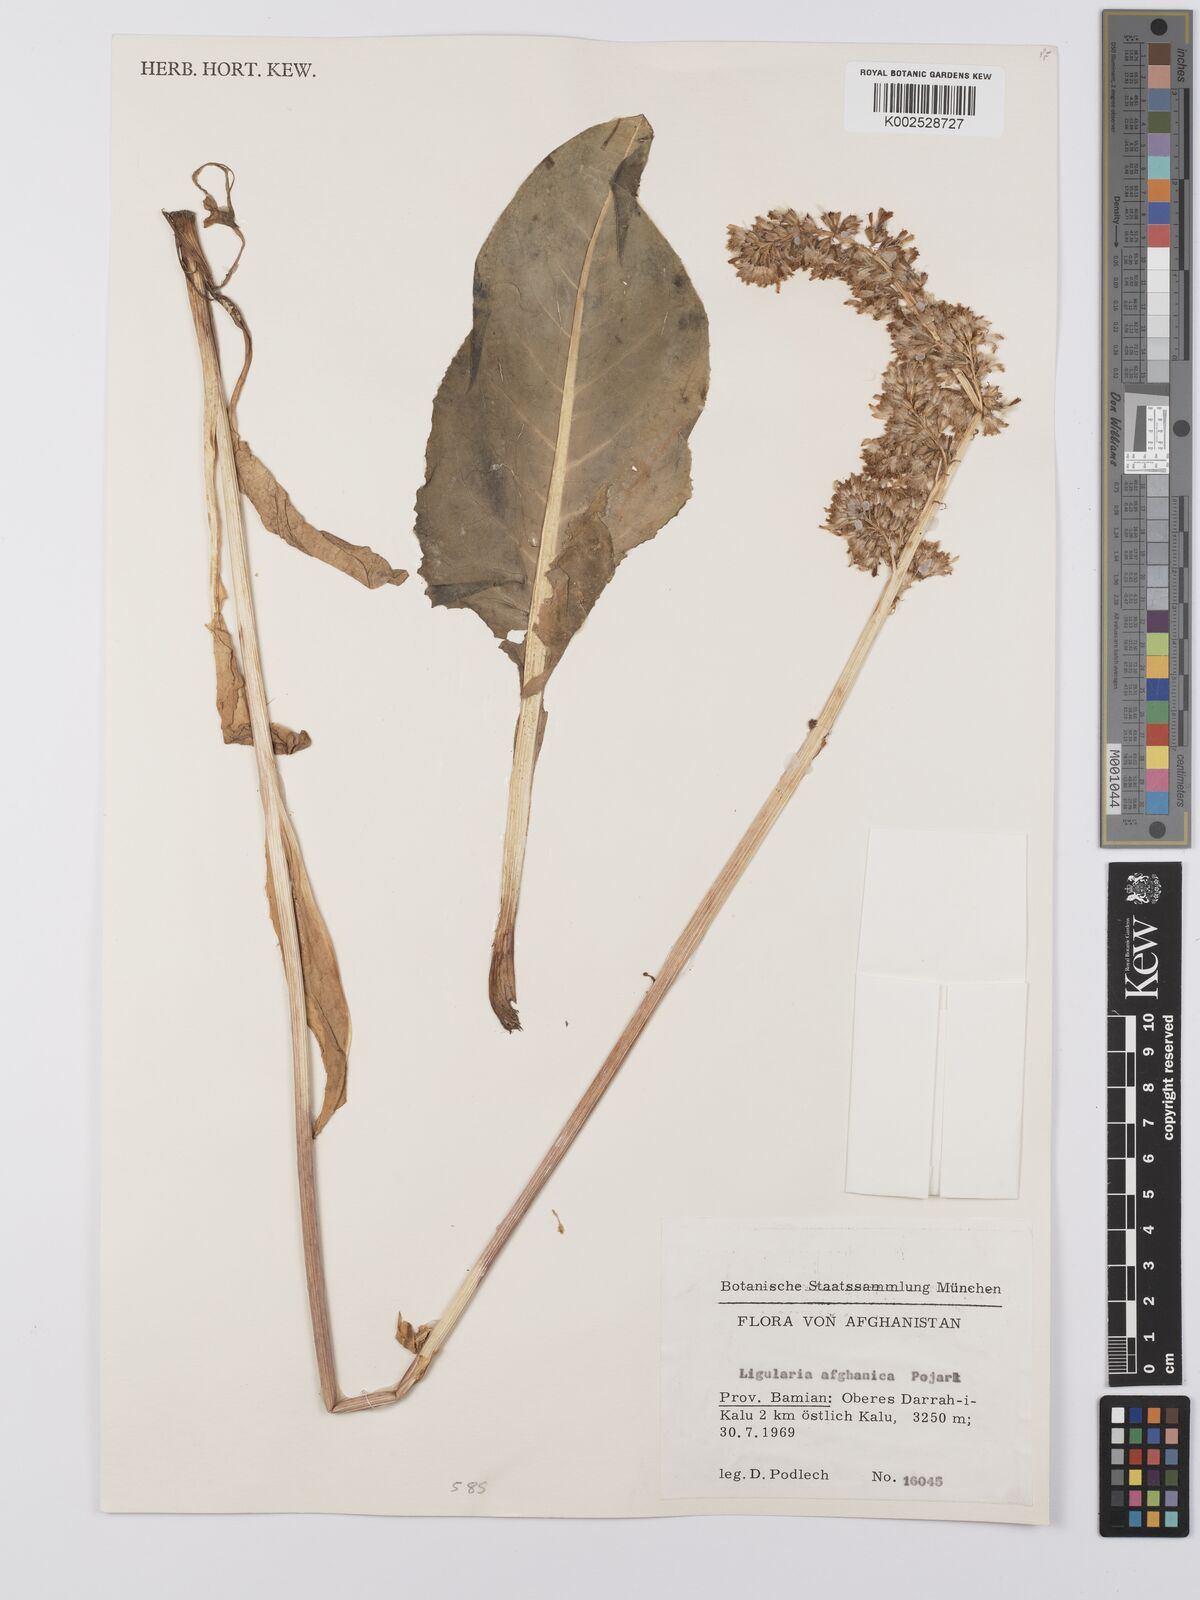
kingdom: Plantae
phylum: Tracheophyta
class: Magnoliopsida
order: Asterales
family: Asteraceae
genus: Ligularia
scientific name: Ligularia afghanica
